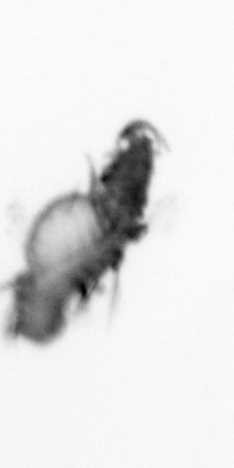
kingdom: Animalia
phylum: Annelida
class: Polychaeta
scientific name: Polychaeta
